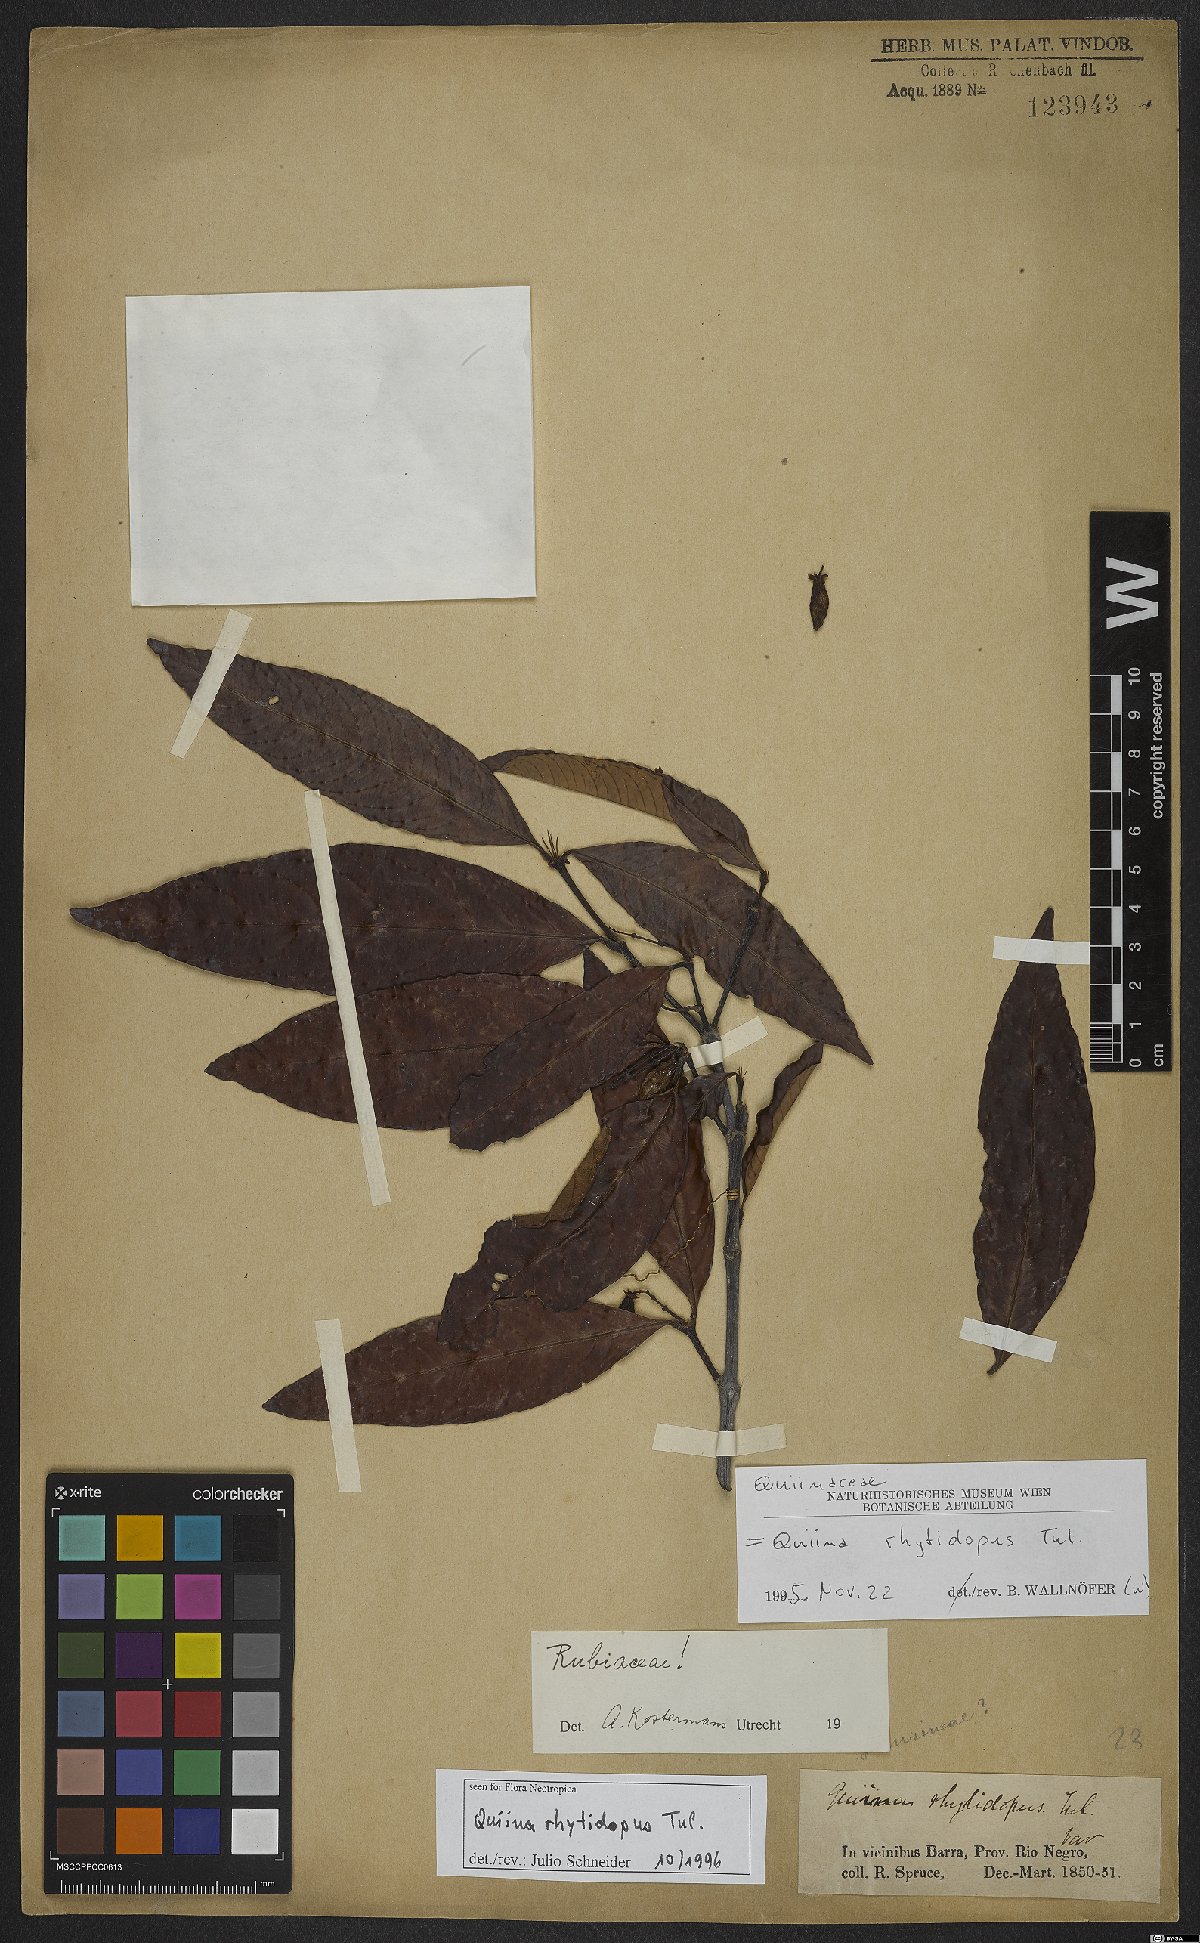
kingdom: Plantae
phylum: Tracheophyta
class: Magnoliopsida
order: Malpighiales
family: Quiinaceae
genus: Quiina
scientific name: Quiina rhytidopus
